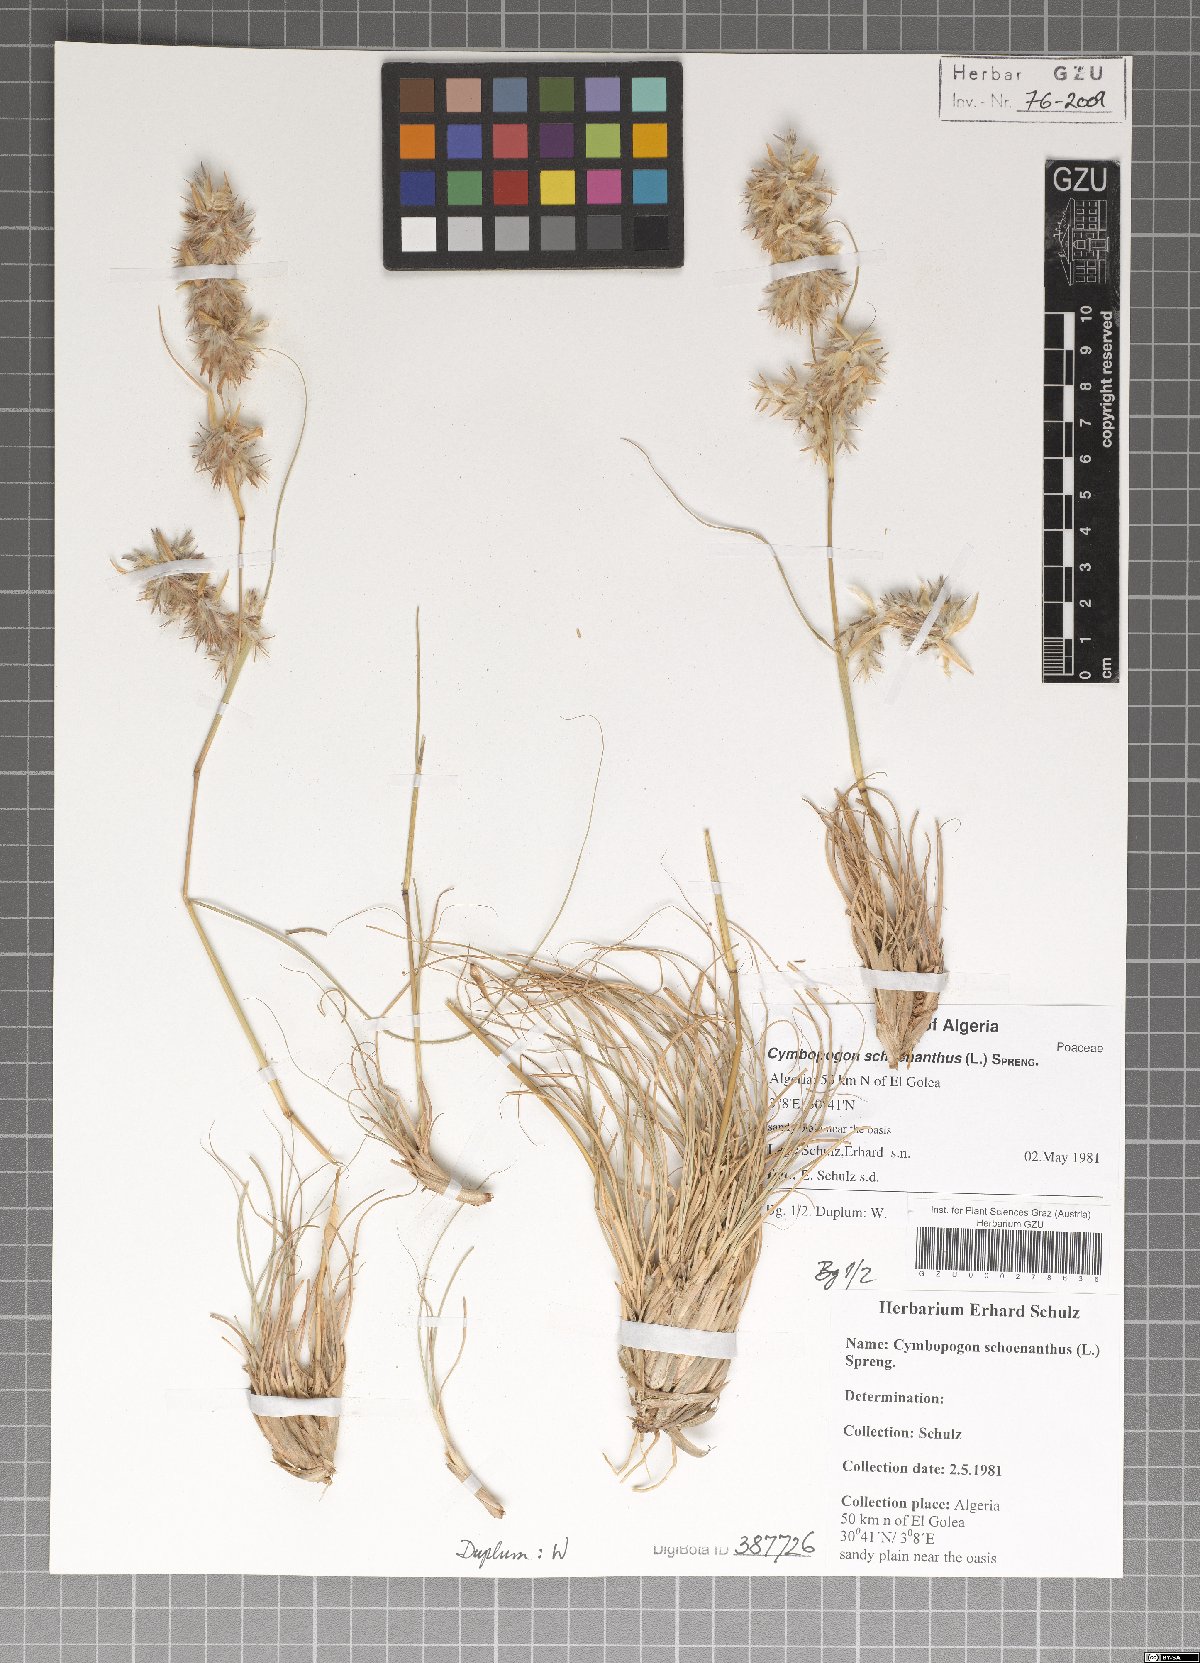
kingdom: Plantae
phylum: Tracheophyta
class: Liliopsida
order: Poales
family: Poaceae
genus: Cymbopogon
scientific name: Cymbopogon schoenanthus
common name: Geranium grass
